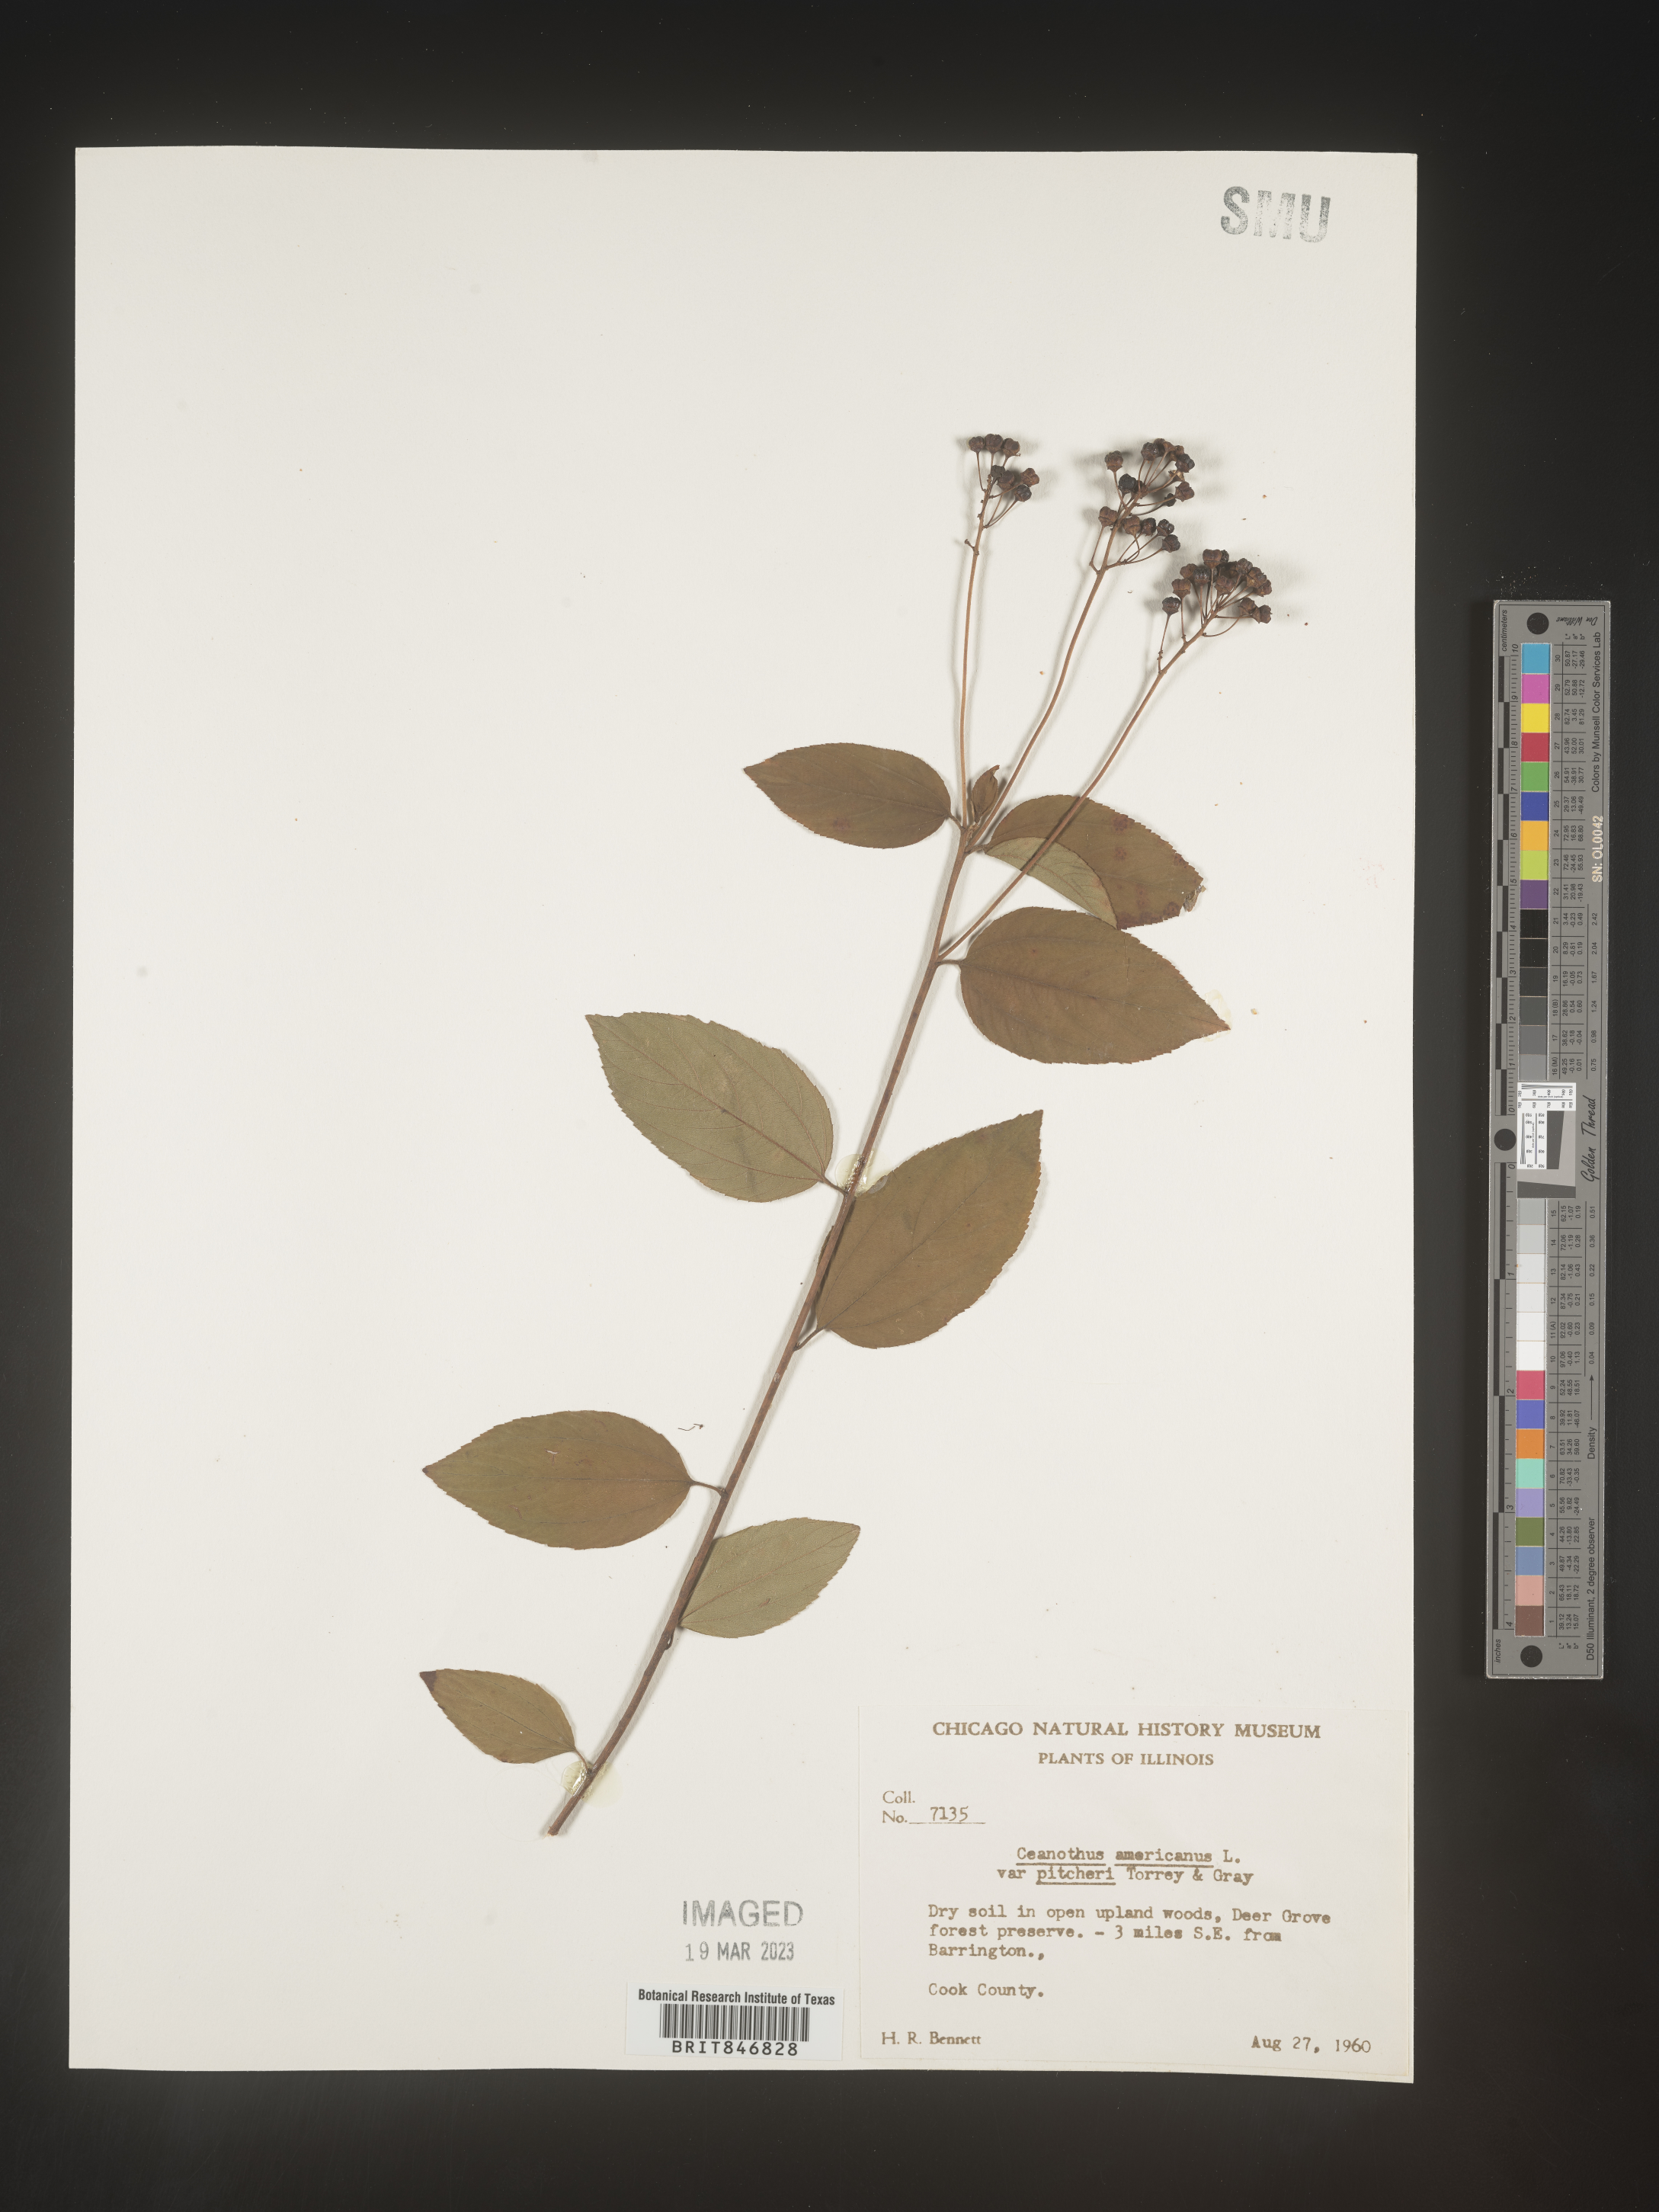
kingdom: Plantae
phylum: Tracheophyta
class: Magnoliopsida
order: Rosales
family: Rhamnaceae
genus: Ceanothus
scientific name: Ceanothus americanus
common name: Redroot
